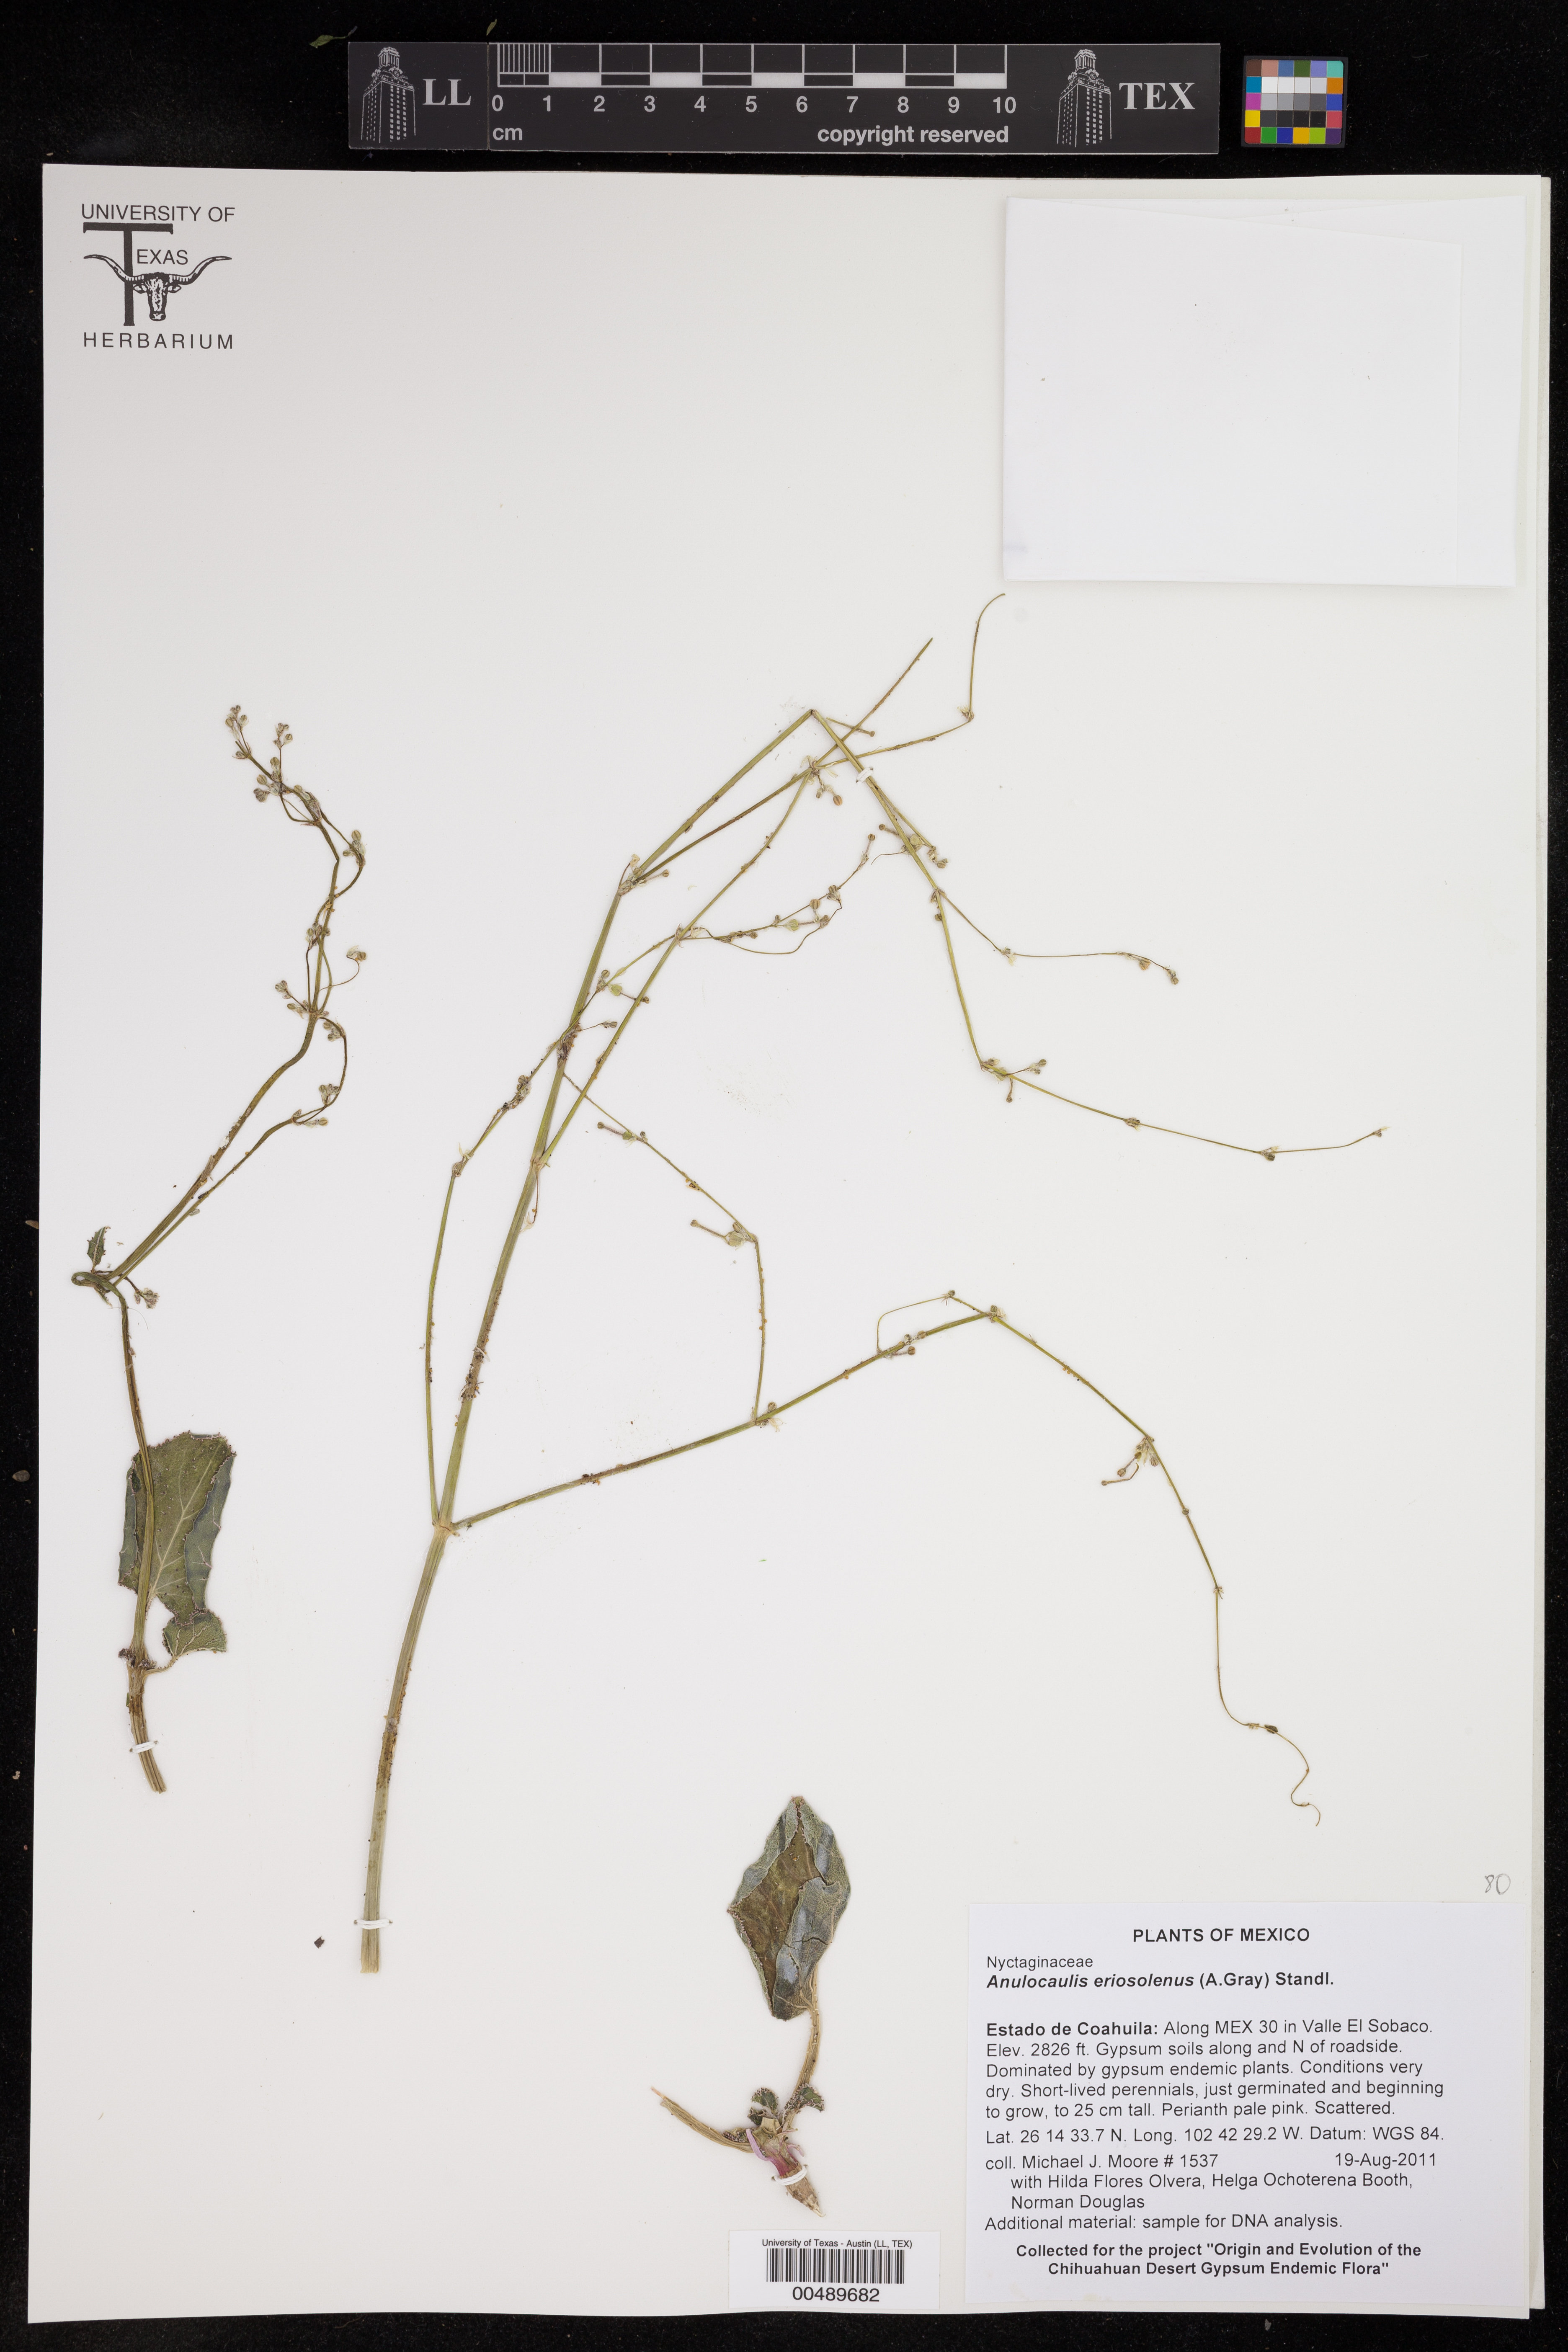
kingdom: Plantae
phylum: Tracheophyta
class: Magnoliopsida
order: Caryophyllales
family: Nyctaginaceae
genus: Anulocaulis
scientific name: Anulocaulis eriosolenus
